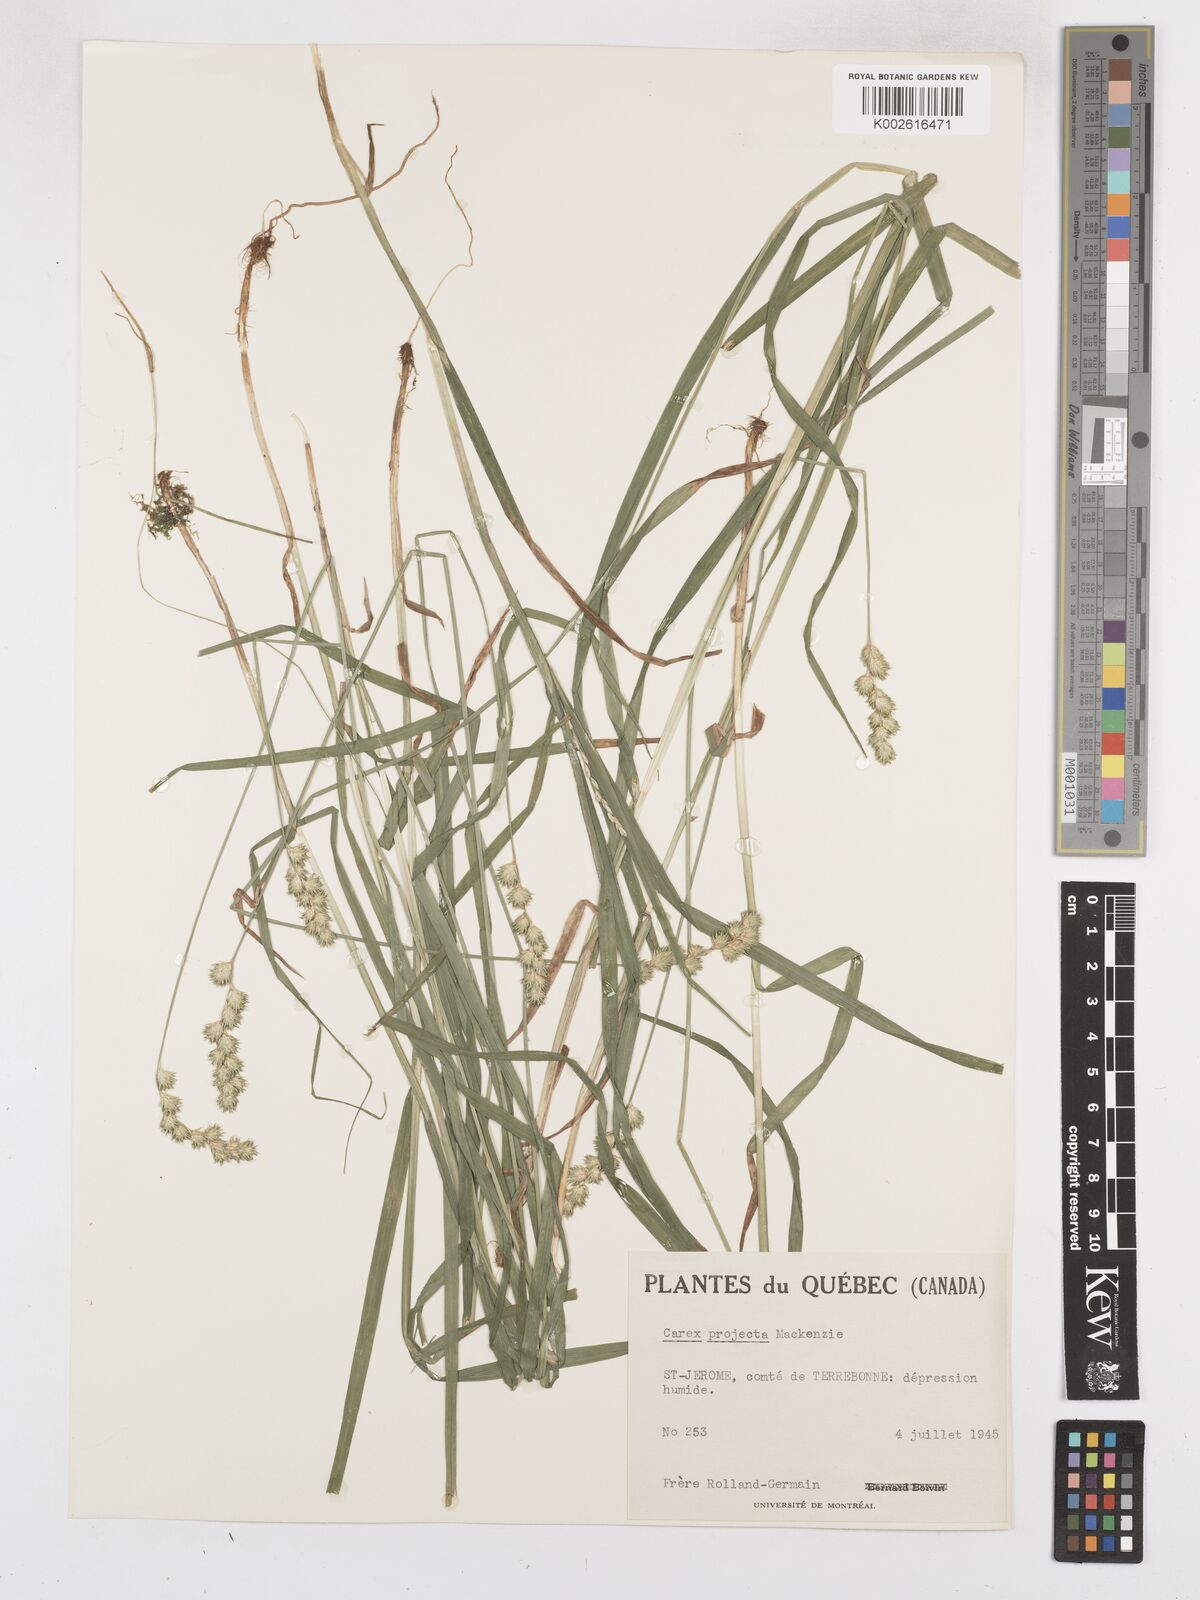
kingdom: Plantae
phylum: Tracheophyta
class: Liliopsida
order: Poales
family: Cyperaceae
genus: Carex
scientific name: Carex projecta
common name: Loose-headed oval sedge
